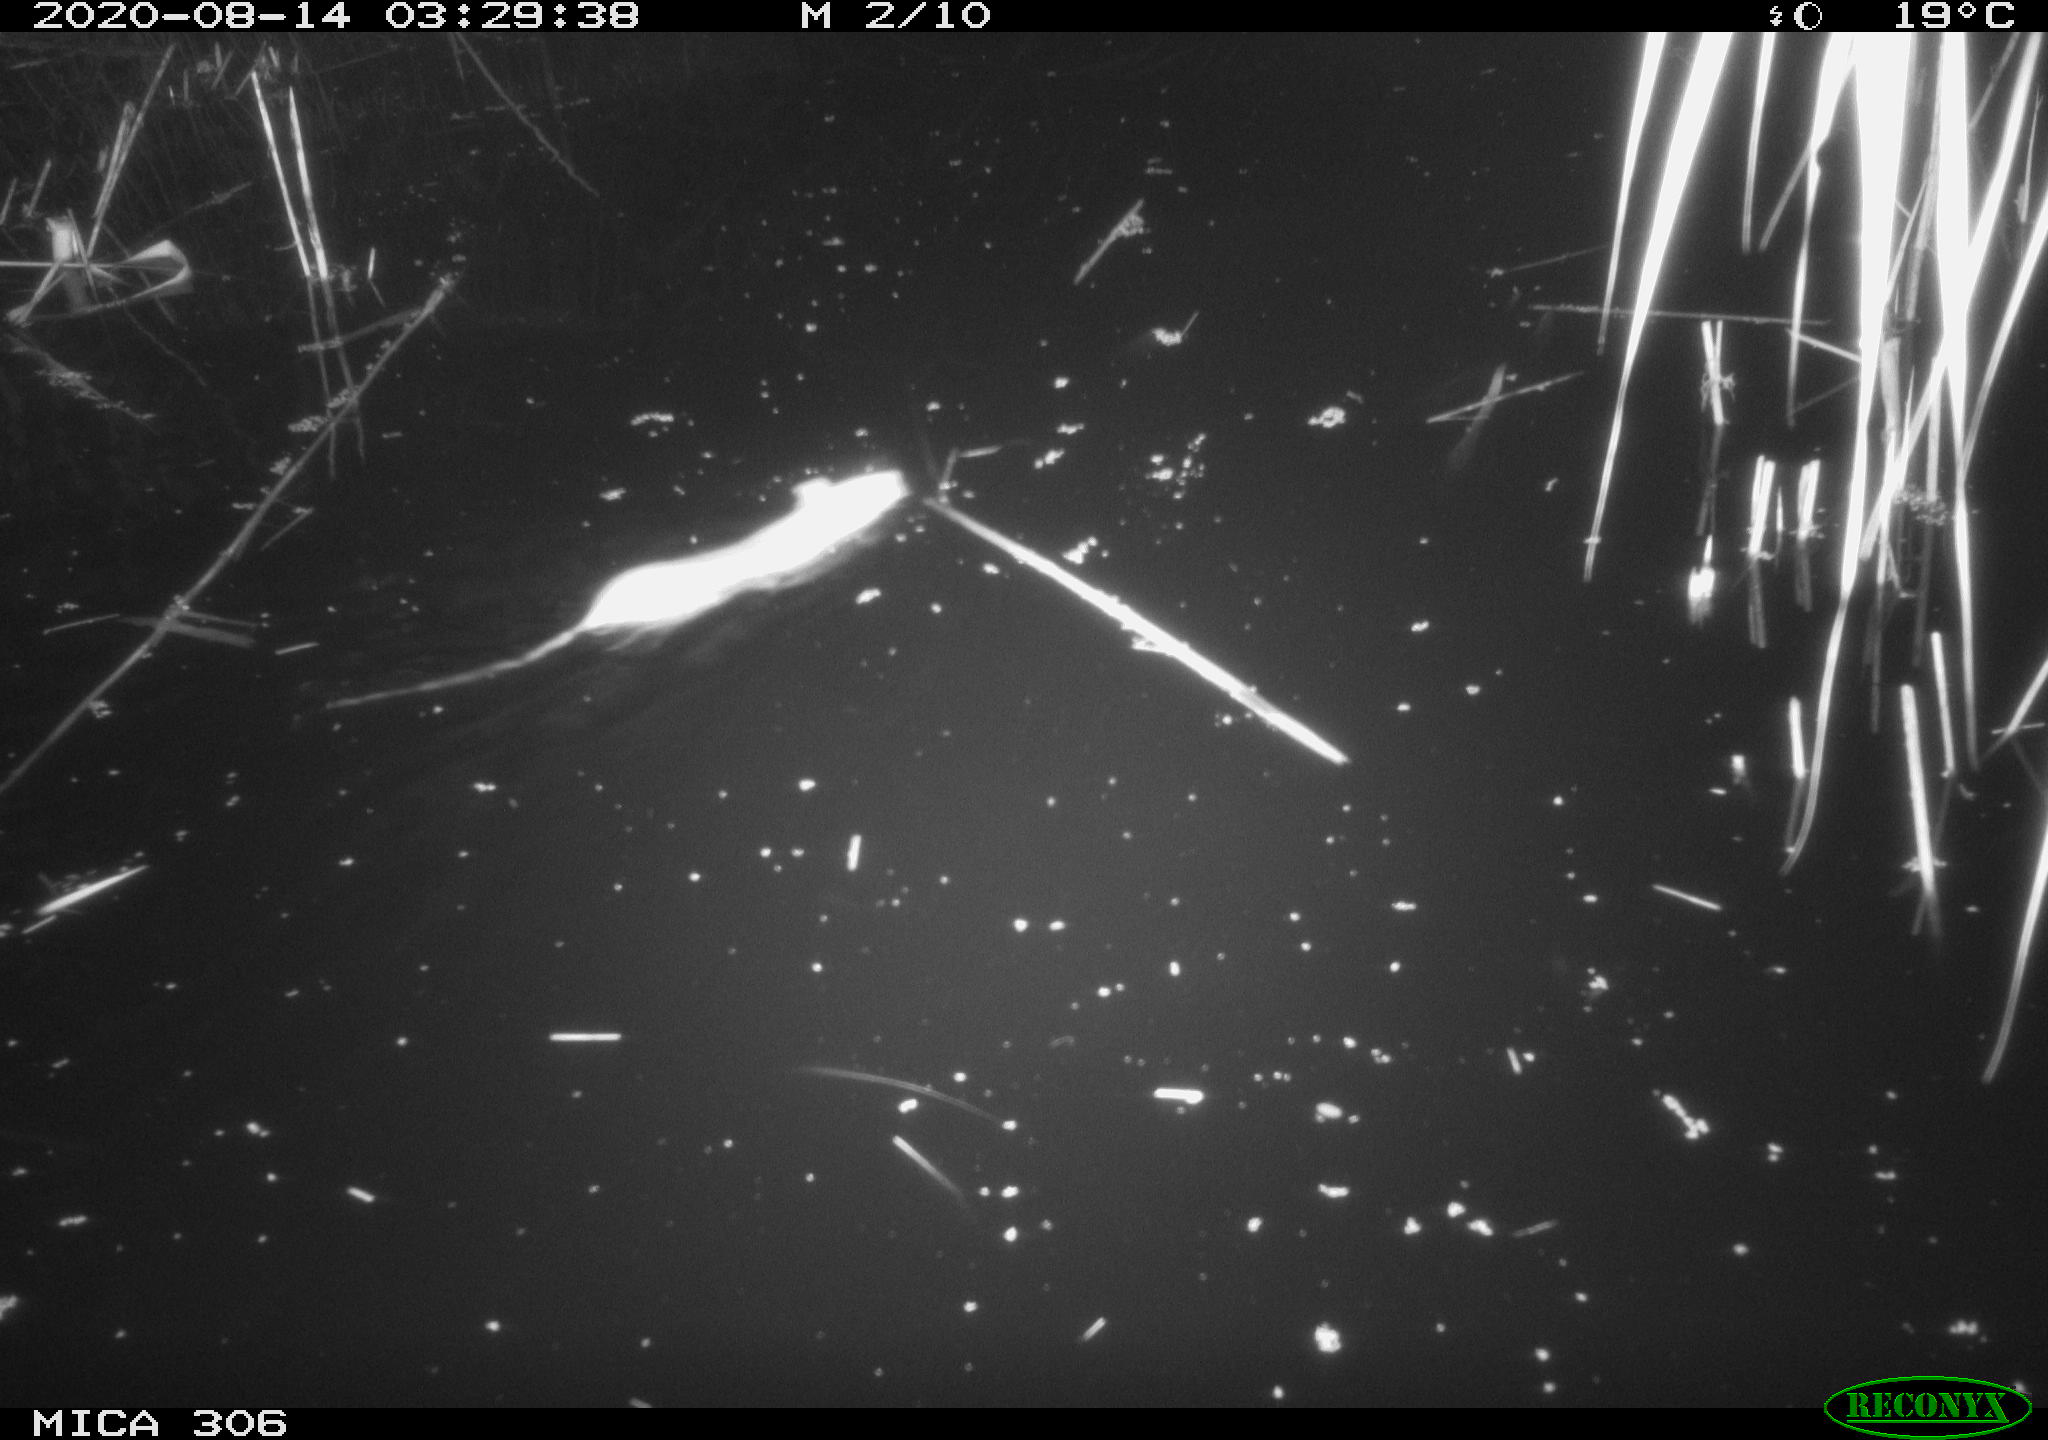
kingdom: Animalia
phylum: Chordata
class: Mammalia
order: Rodentia
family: Muridae
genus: Rattus
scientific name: Rattus norvegicus
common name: Brown rat
